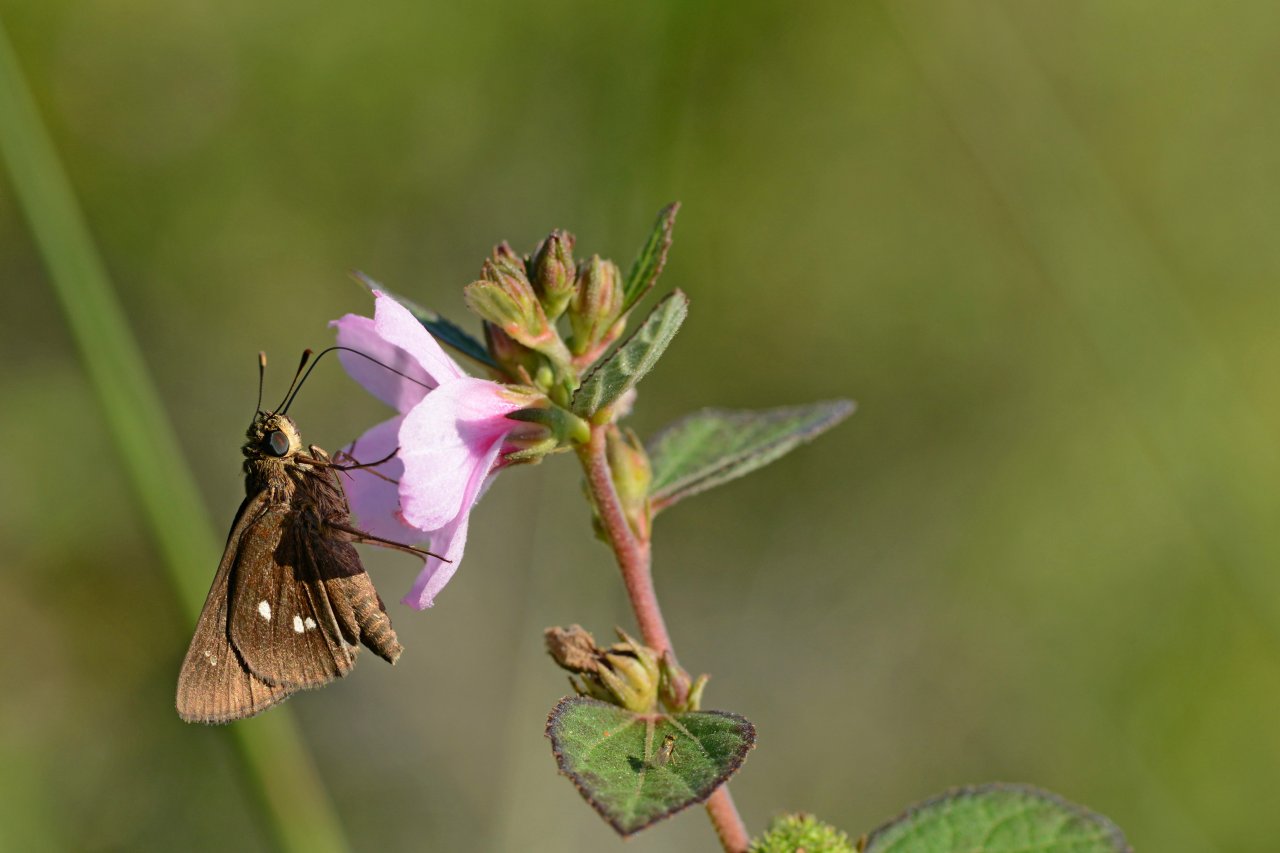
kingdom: Animalia
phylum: Arthropoda
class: Insecta
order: Lepidoptera
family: Hesperiidae
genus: Oligoria
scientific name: Oligoria maculata
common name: Twin-spot Skipper
